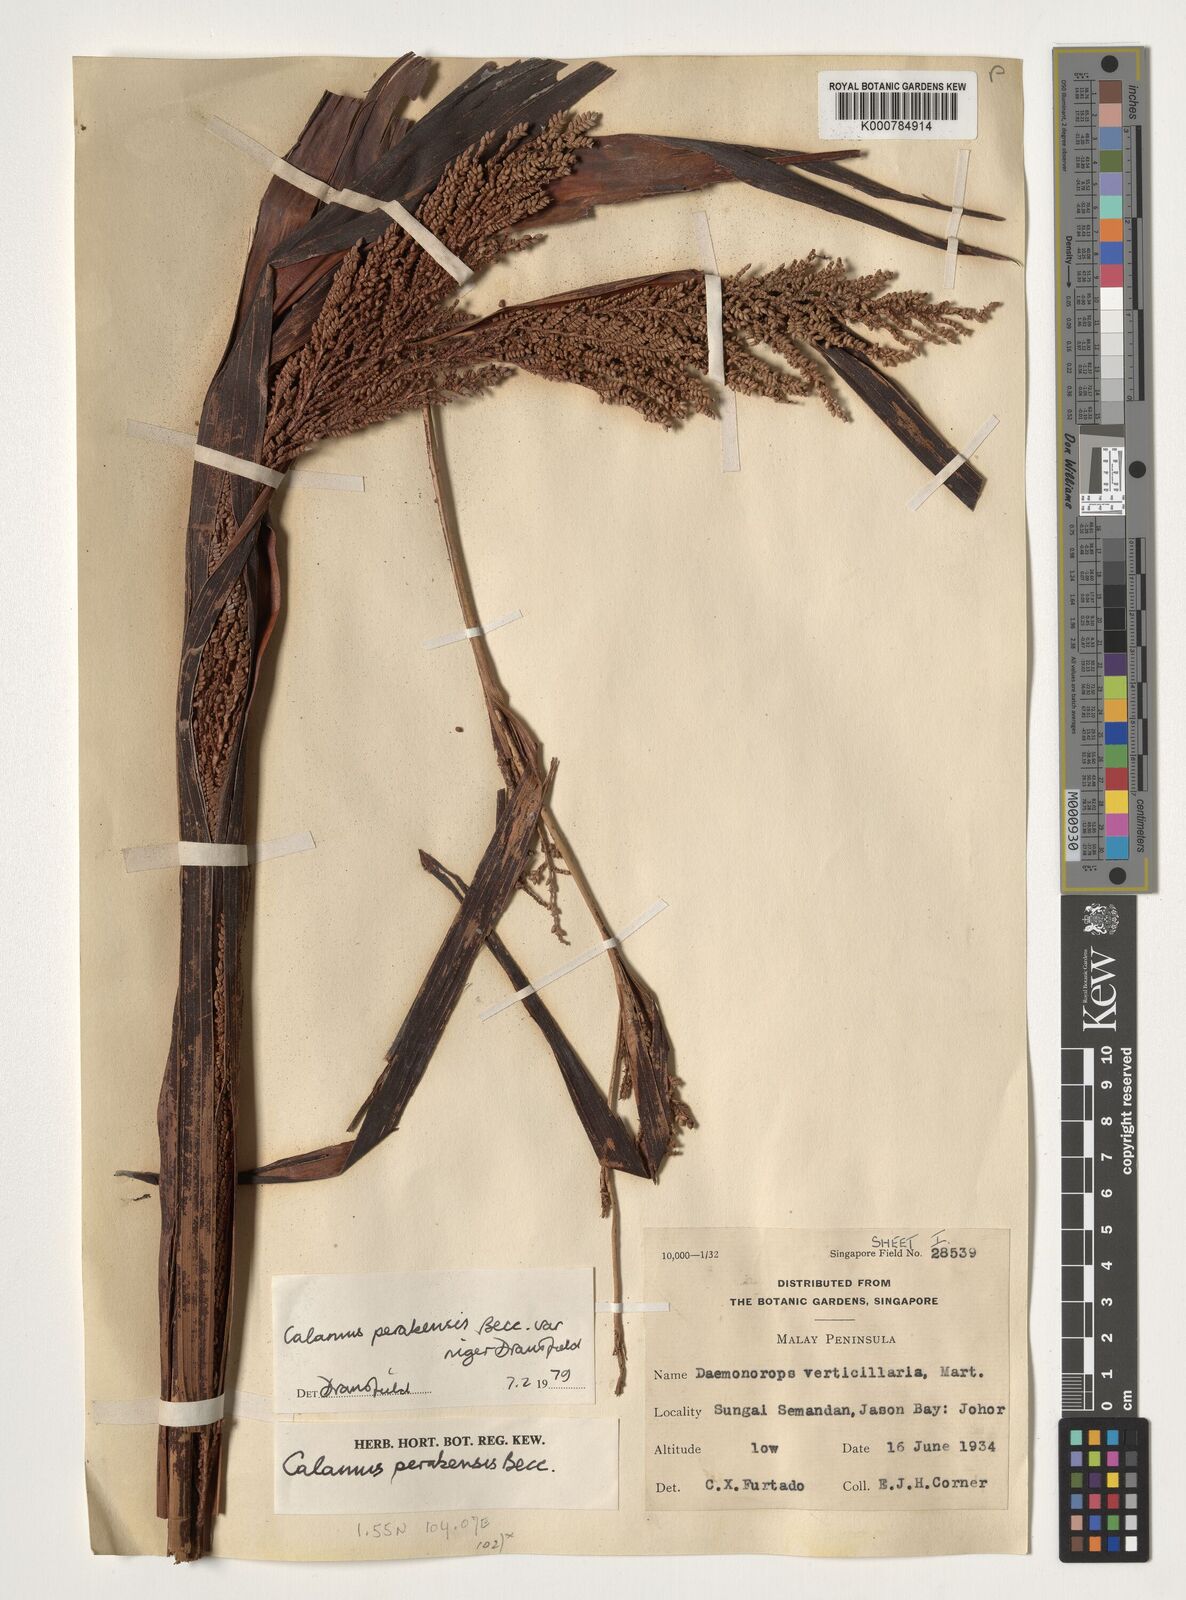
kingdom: Plantae
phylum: Tracheophyta
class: Liliopsida
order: Arecales
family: Arecaceae
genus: Calamus
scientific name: Calamus perakensis
